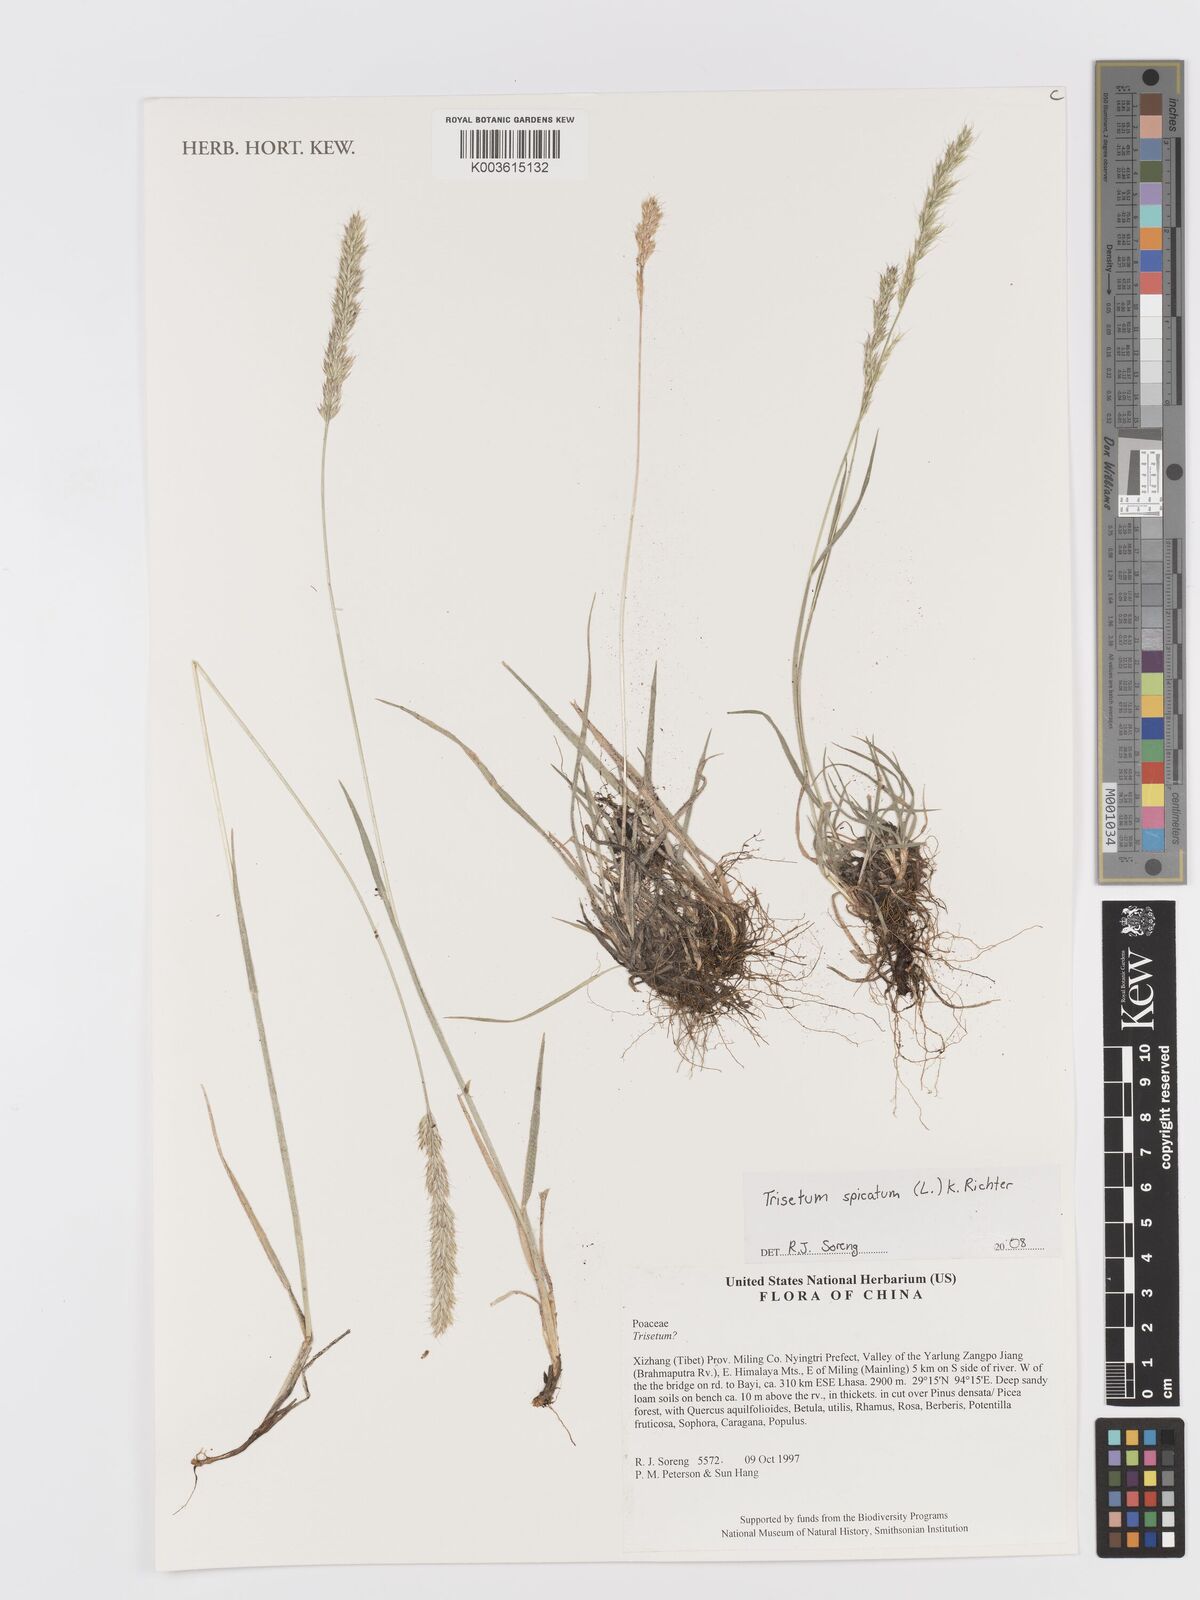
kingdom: Plantae
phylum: Tracheophyta
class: Liliopsida
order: Poales
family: Poaceae
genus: Koeleria
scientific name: Koeleria spicata
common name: Mountain trisetum
